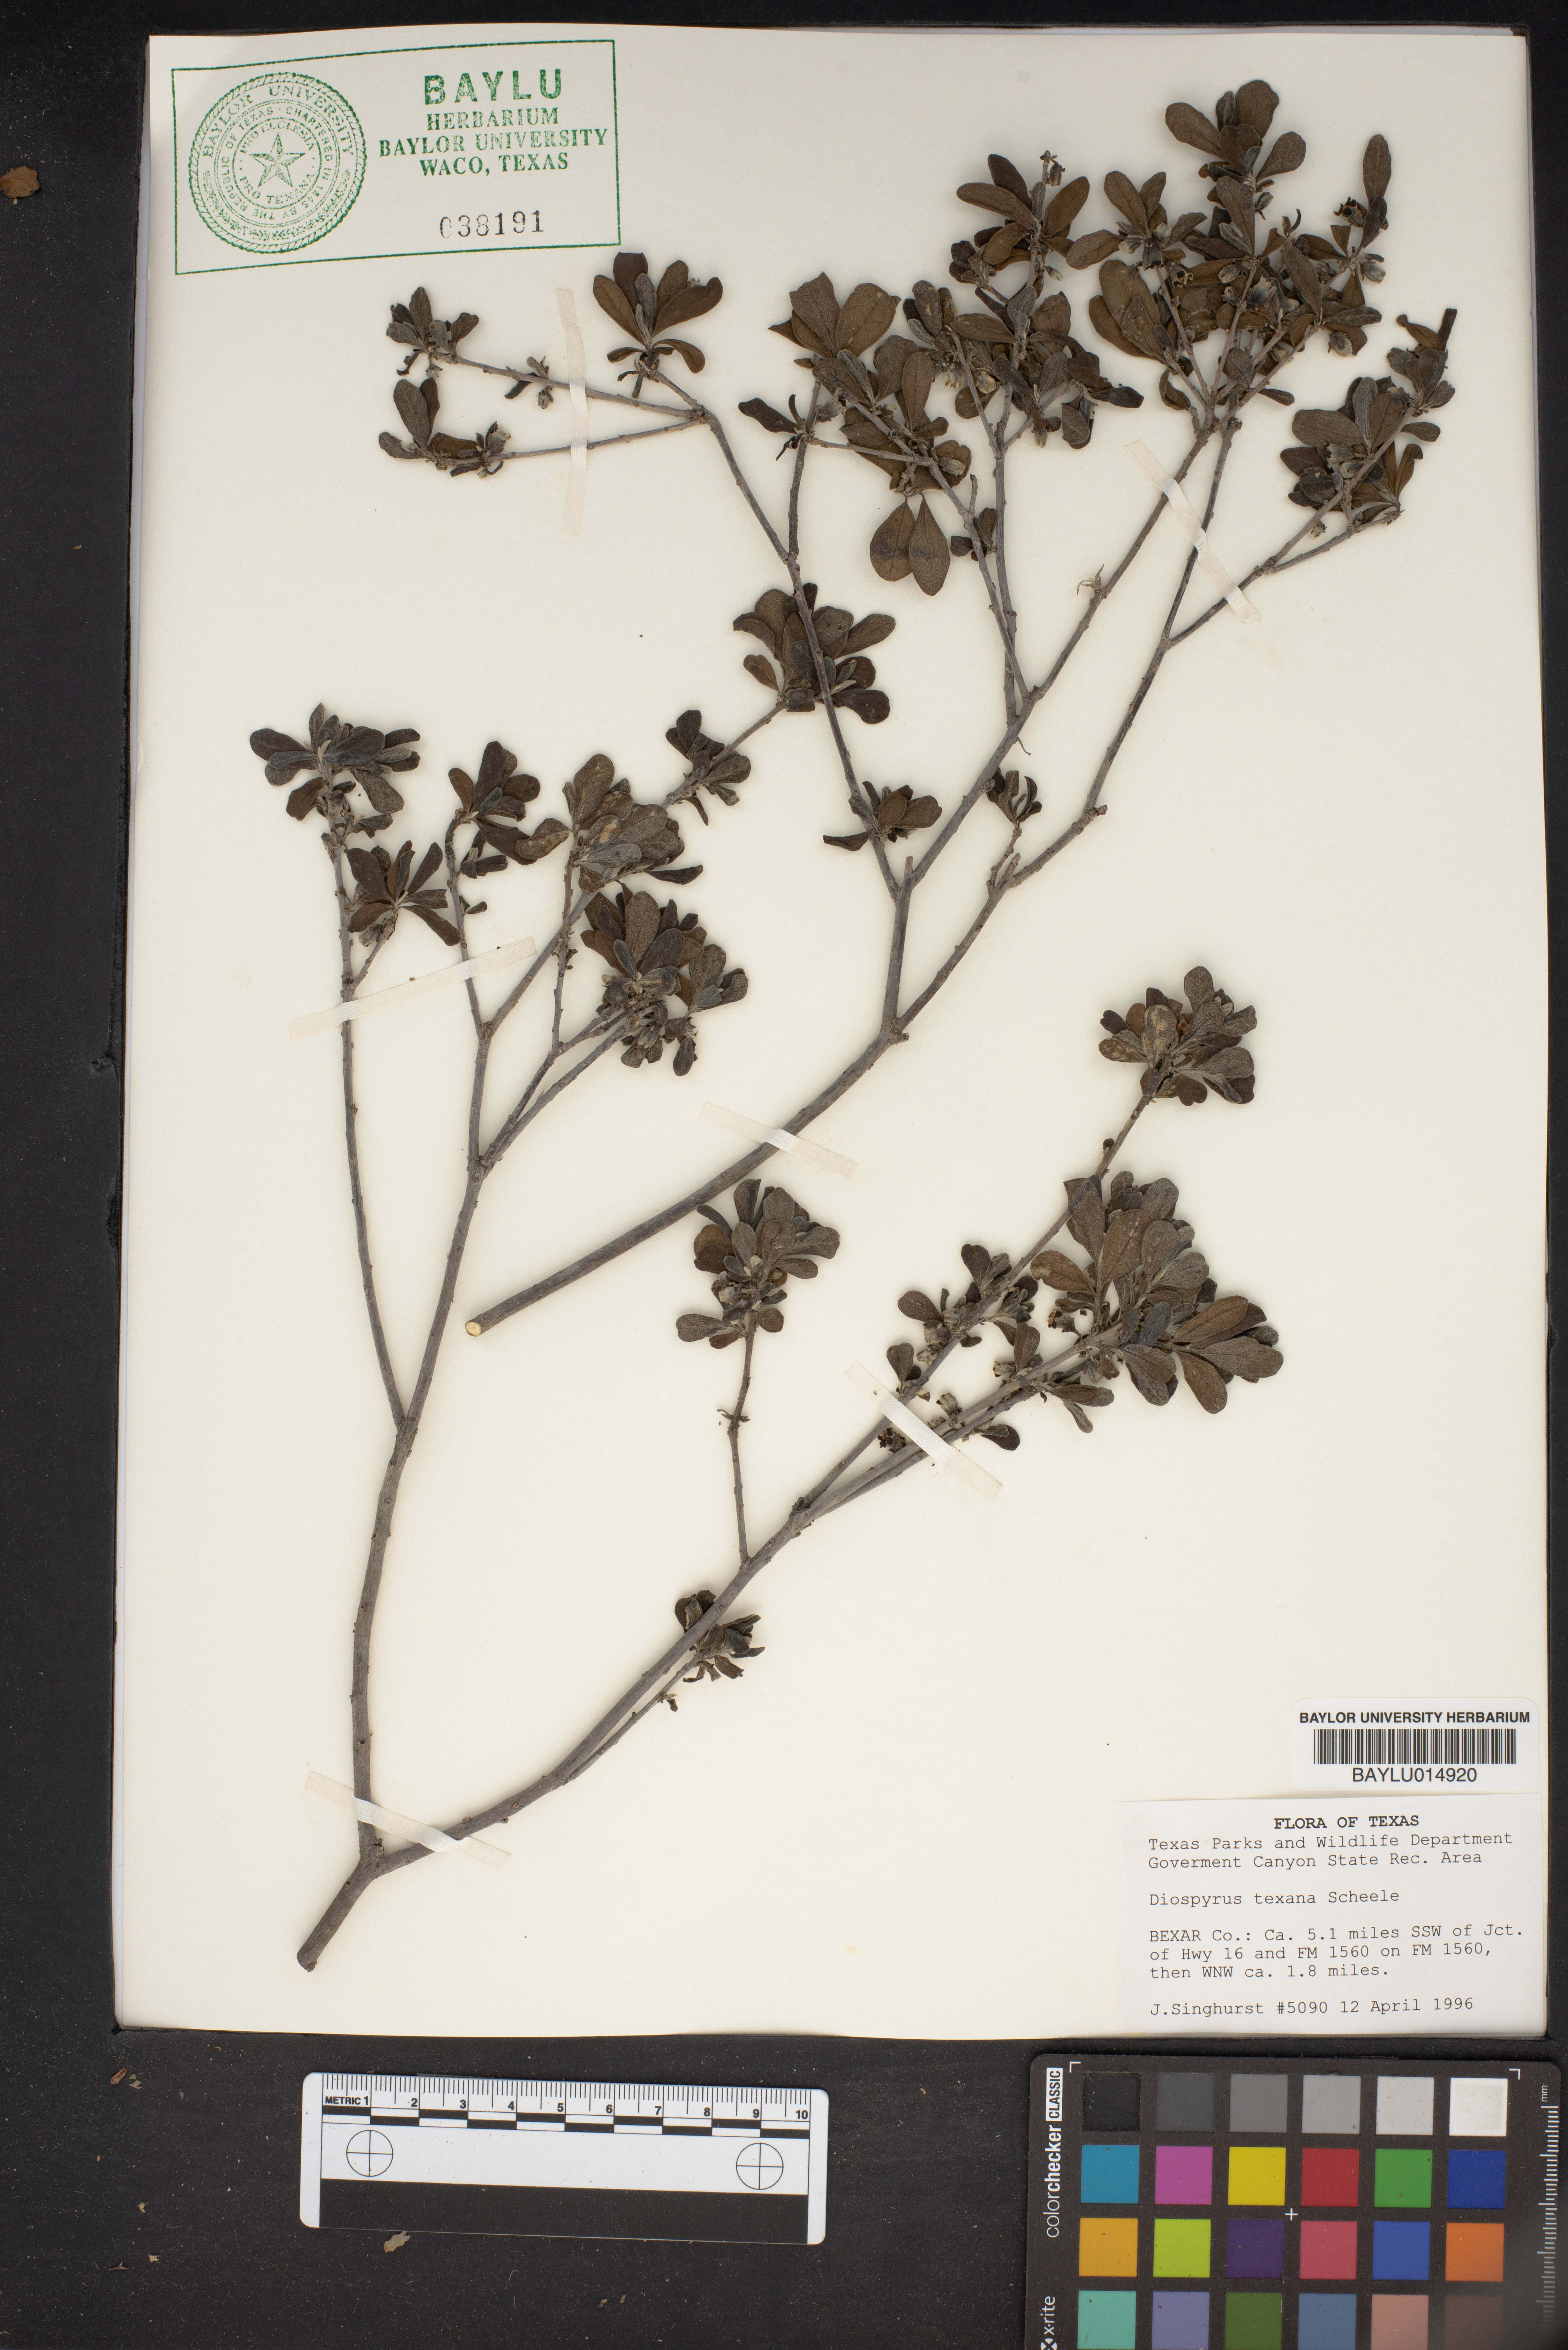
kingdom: Plantae
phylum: Tracheophyta
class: Magnoliopsida
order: Ericales
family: Ebenaceae
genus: Diospyros
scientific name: Diospyros texana
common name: Texas persimmon
